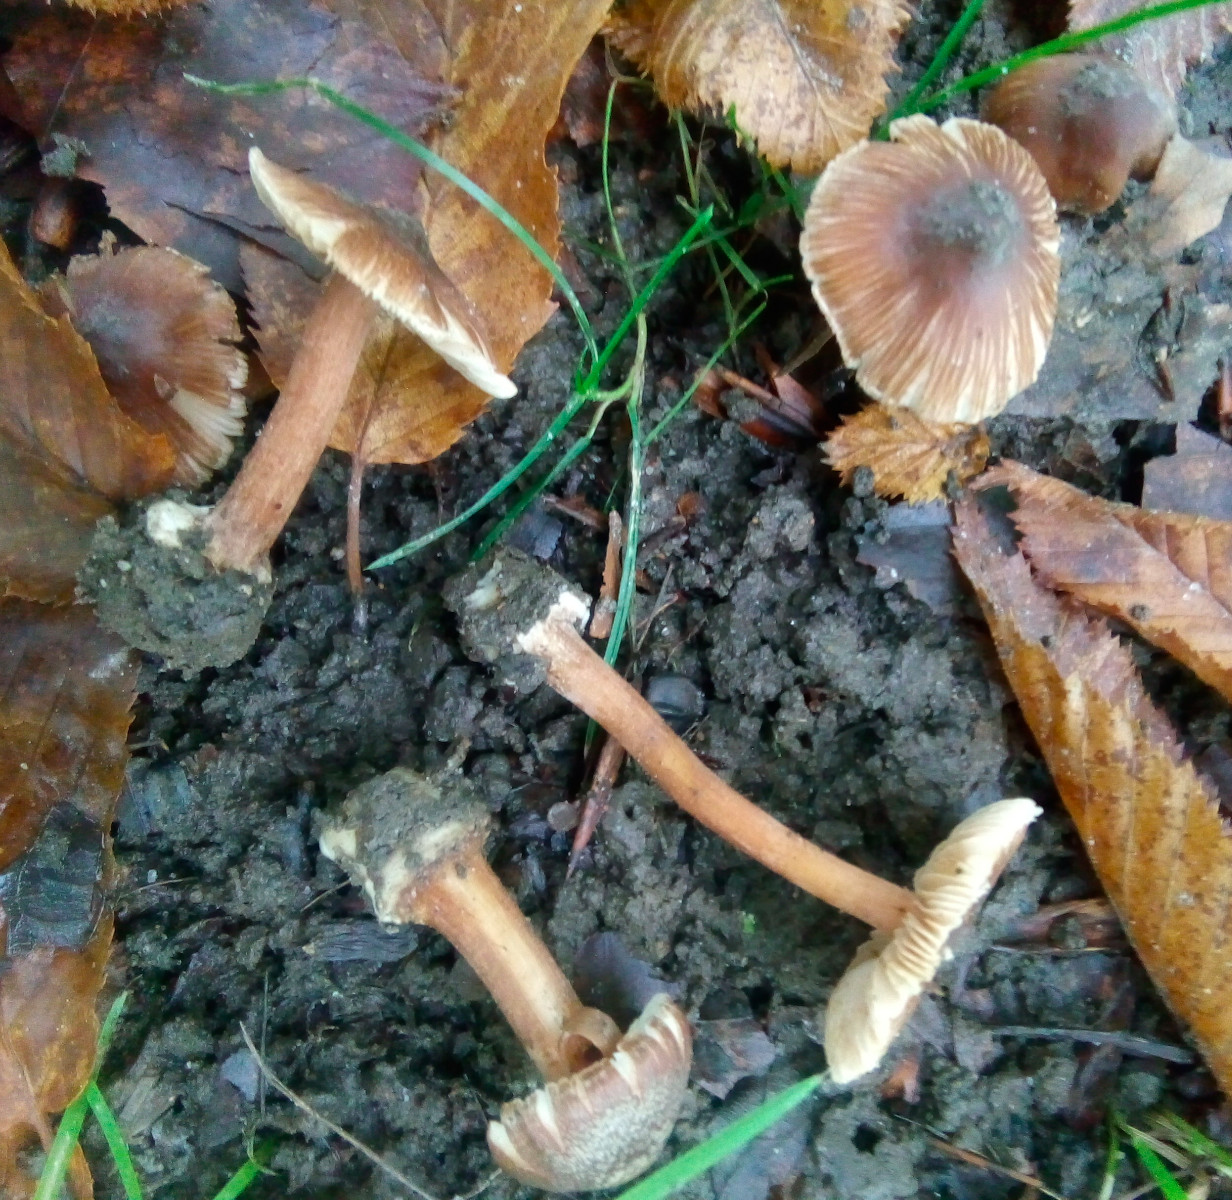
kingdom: Fungi
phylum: Basidiomycota
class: Agaricomycetes
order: Agaricales
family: Inocybaceae
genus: Inocybe
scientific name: Inocybe asterospora
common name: stjernesporet trævlhat
